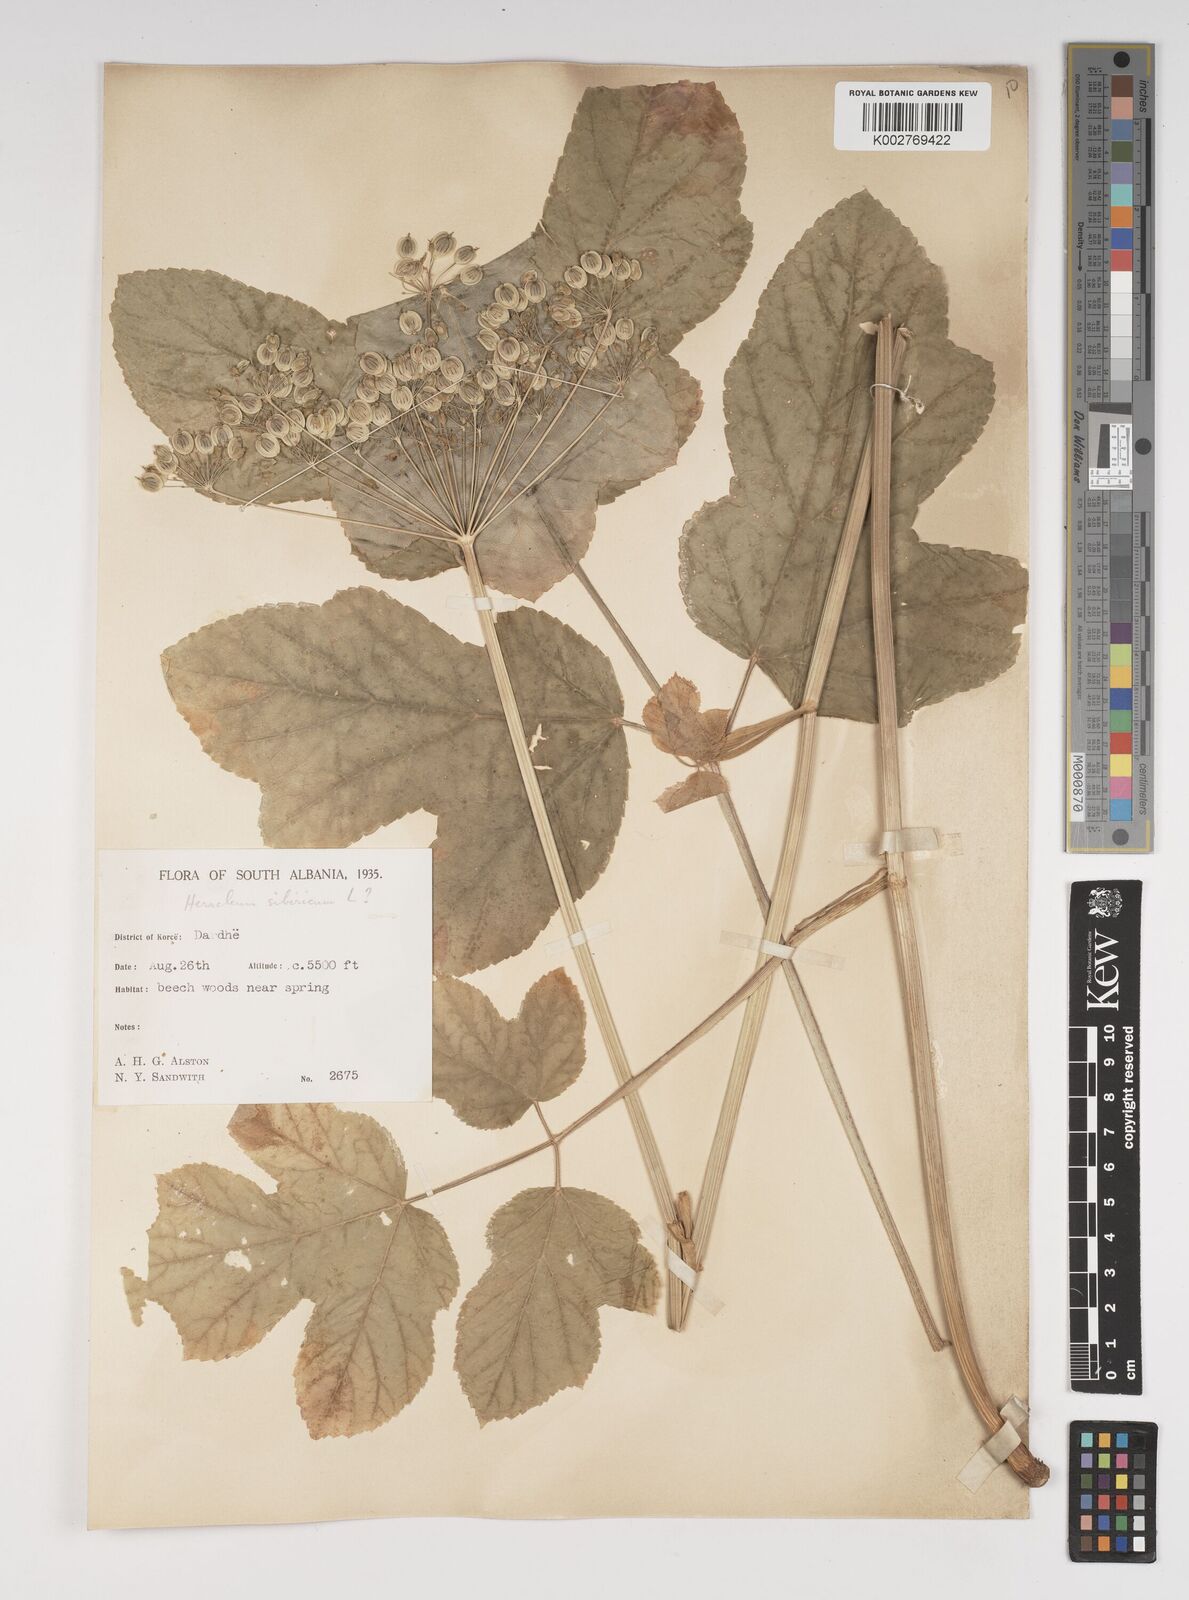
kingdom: Plantae
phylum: Tracheophyta
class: Magnoliopsida
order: Apiales
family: Apiaceae
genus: Heracleum
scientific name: Heracleum sphondylium
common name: Hogweed
